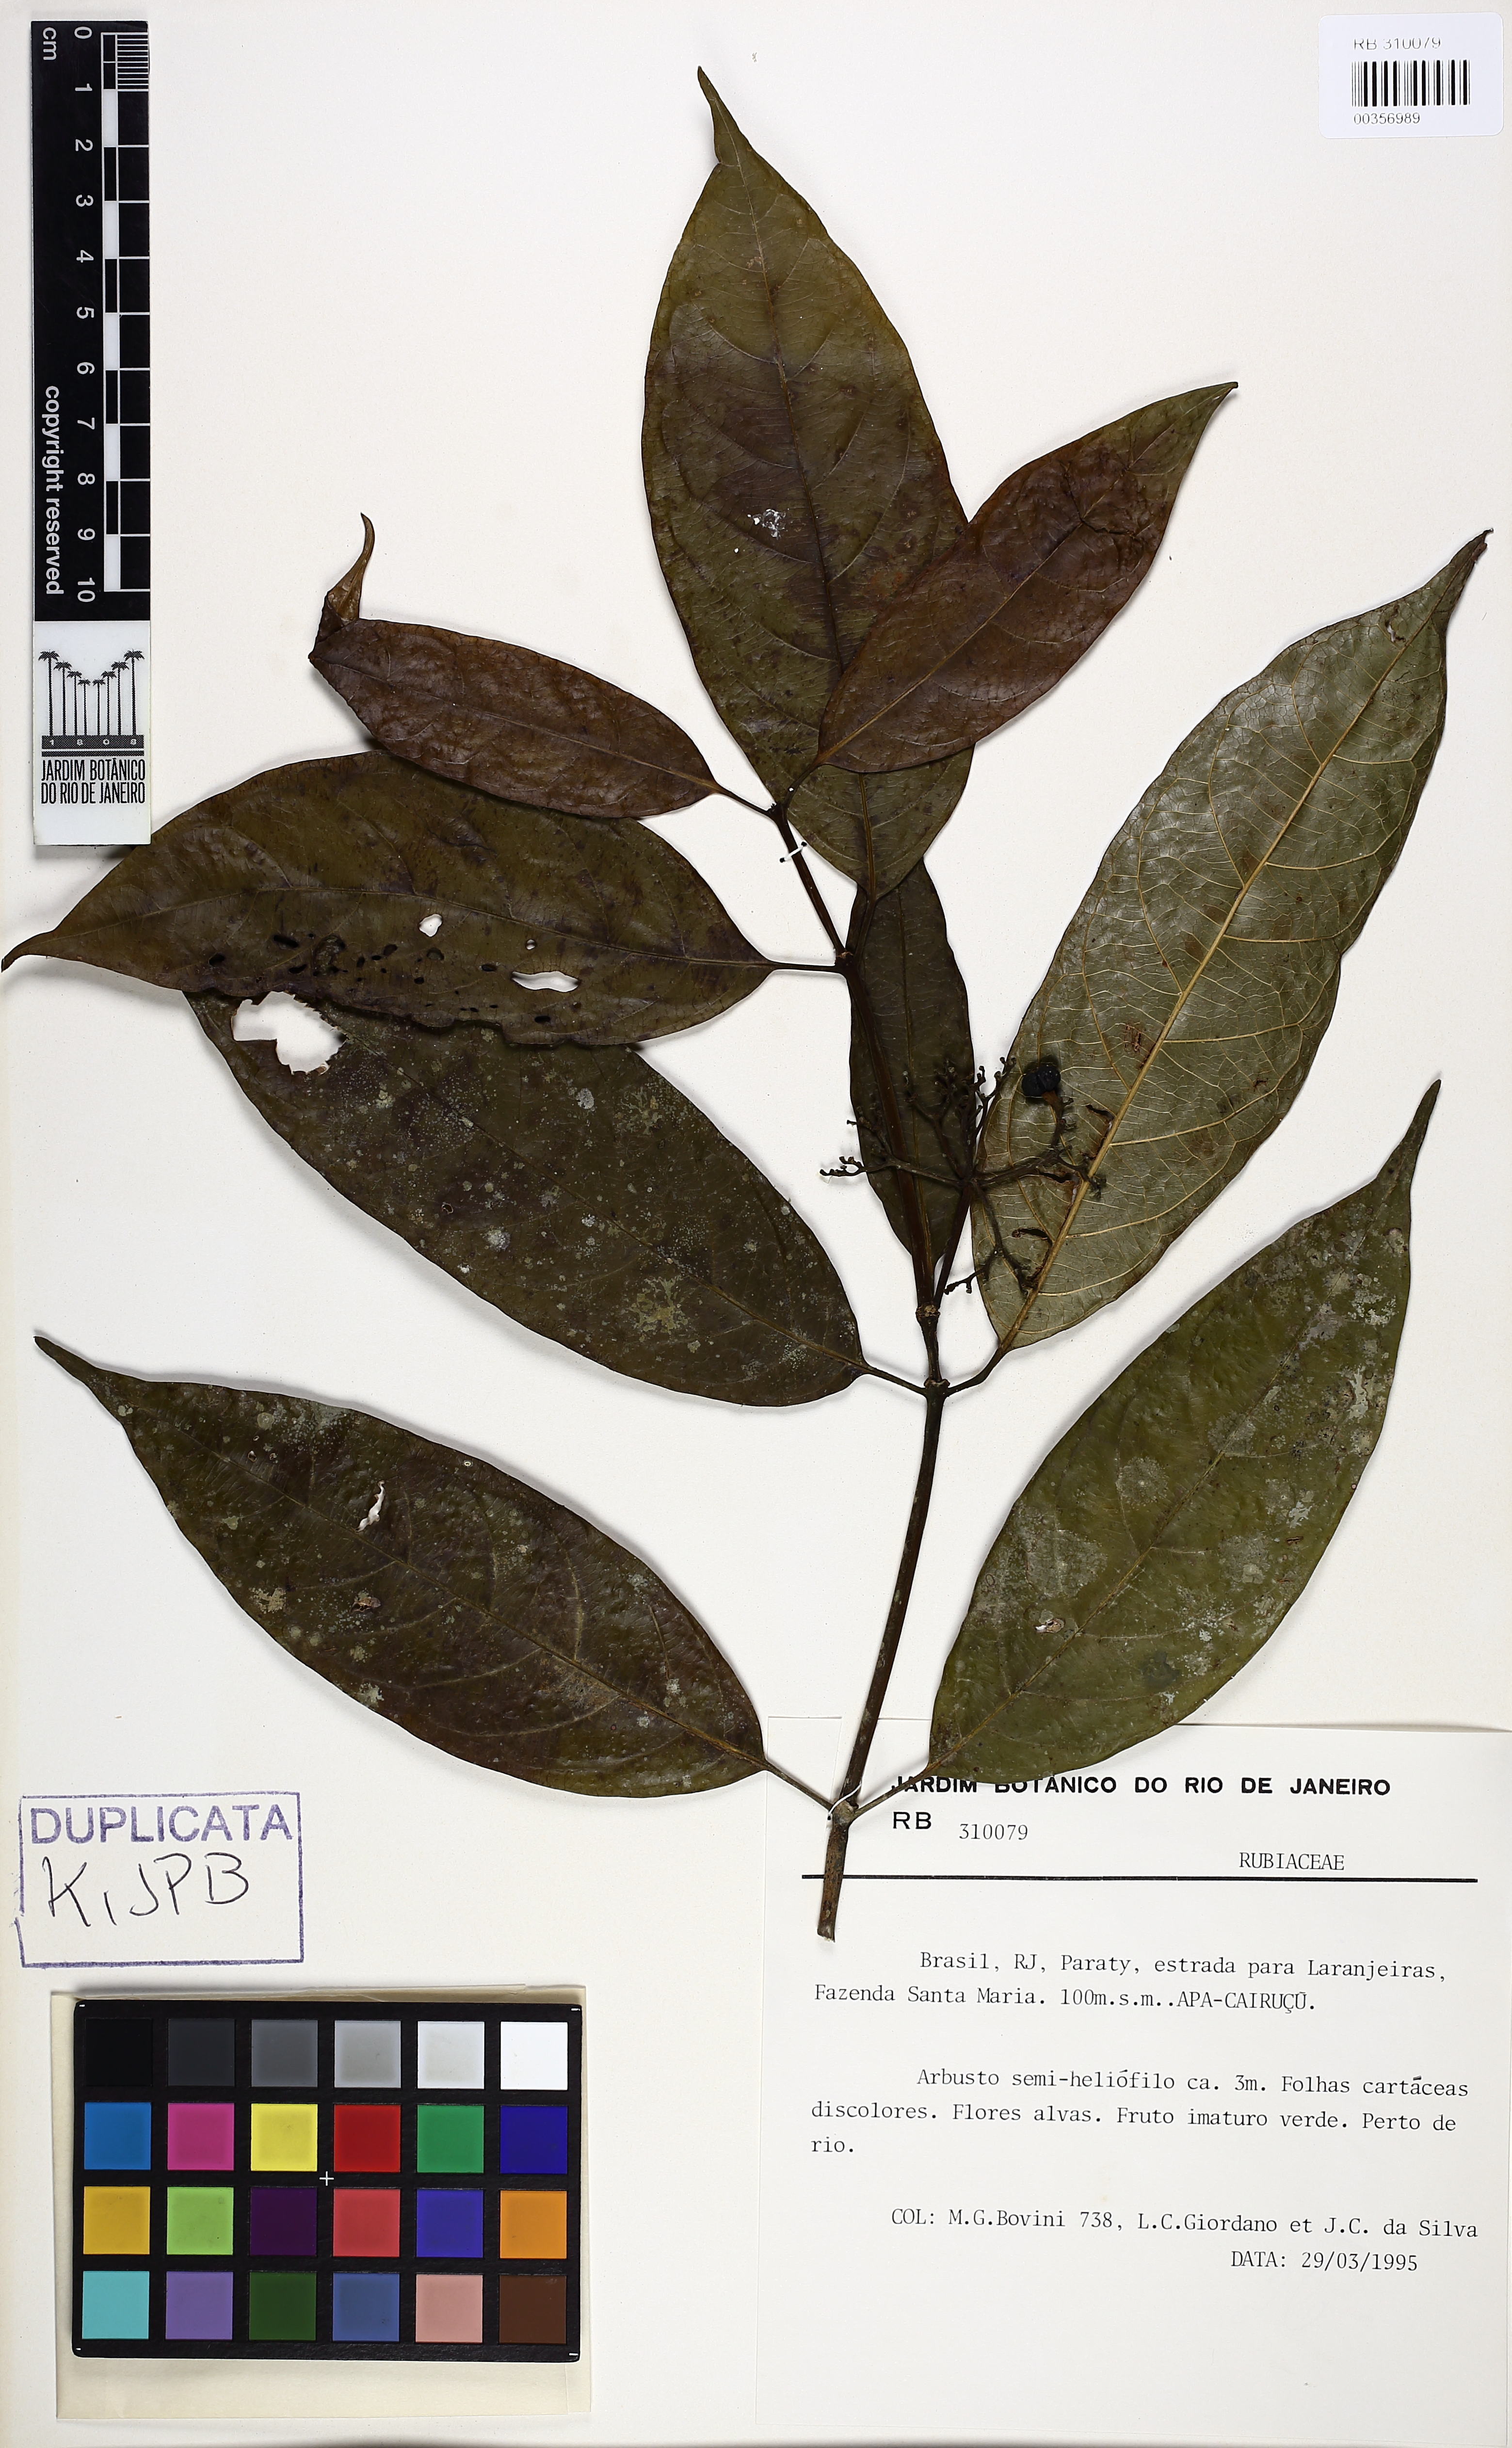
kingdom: Plantae
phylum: Tracheophyta
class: Magnoliopsida
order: Gentianales
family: Rubiaceae
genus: Psychotria
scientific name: Psychotria leitana
